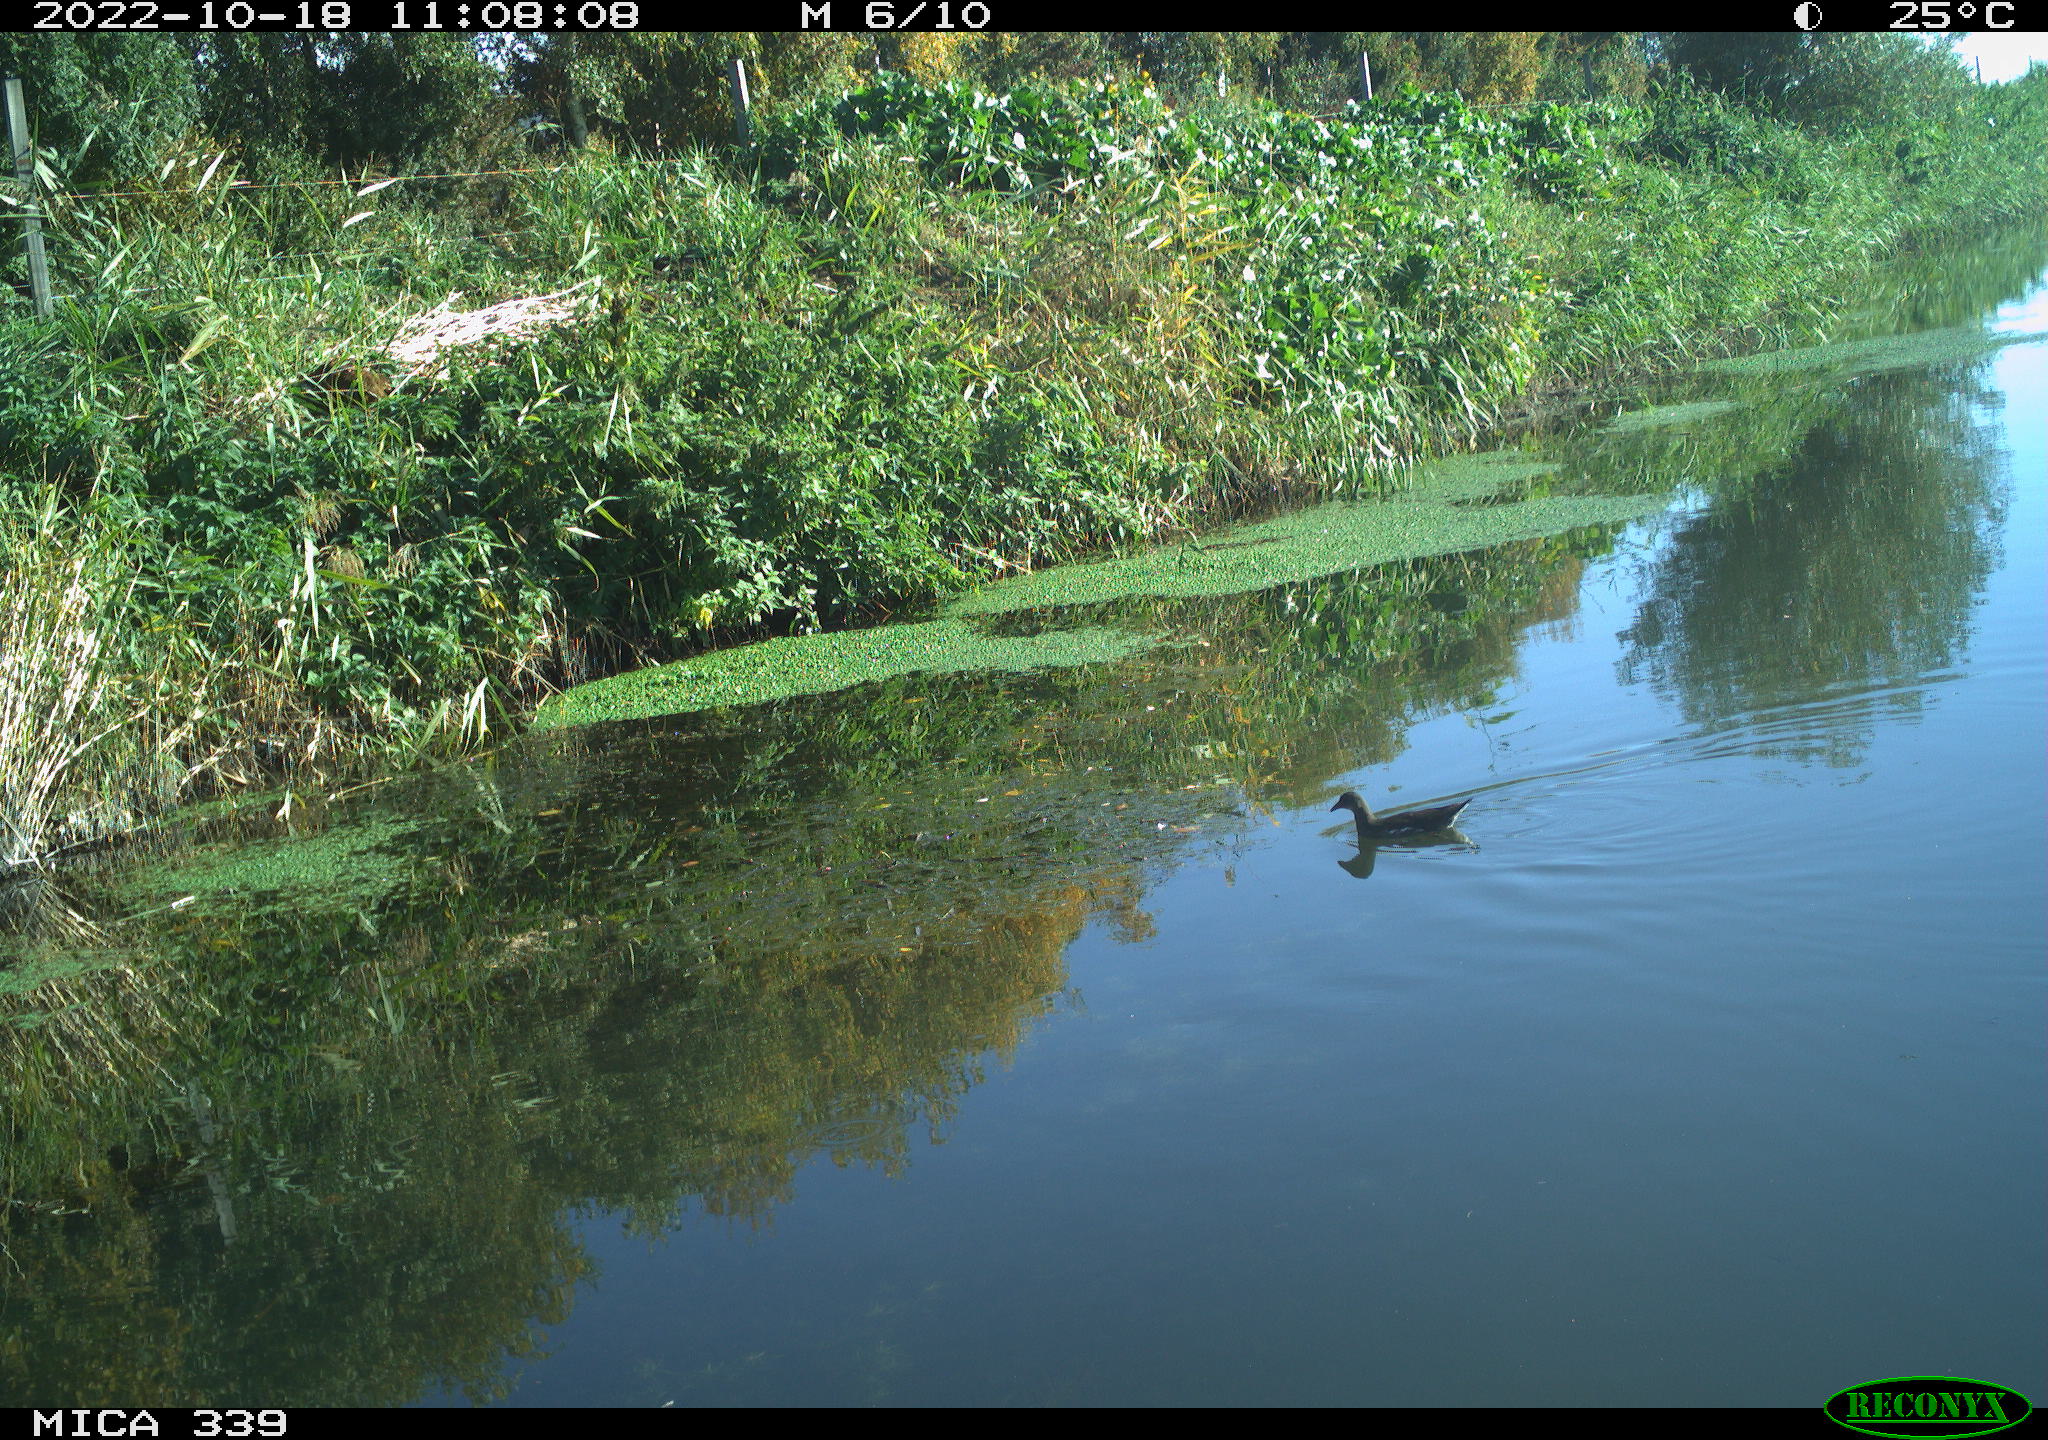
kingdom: Animalia
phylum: Chordata
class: Aves
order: Gruiformes
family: Rallidae
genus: Gallinula
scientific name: Gallinula chloropus
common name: Common moorhen
